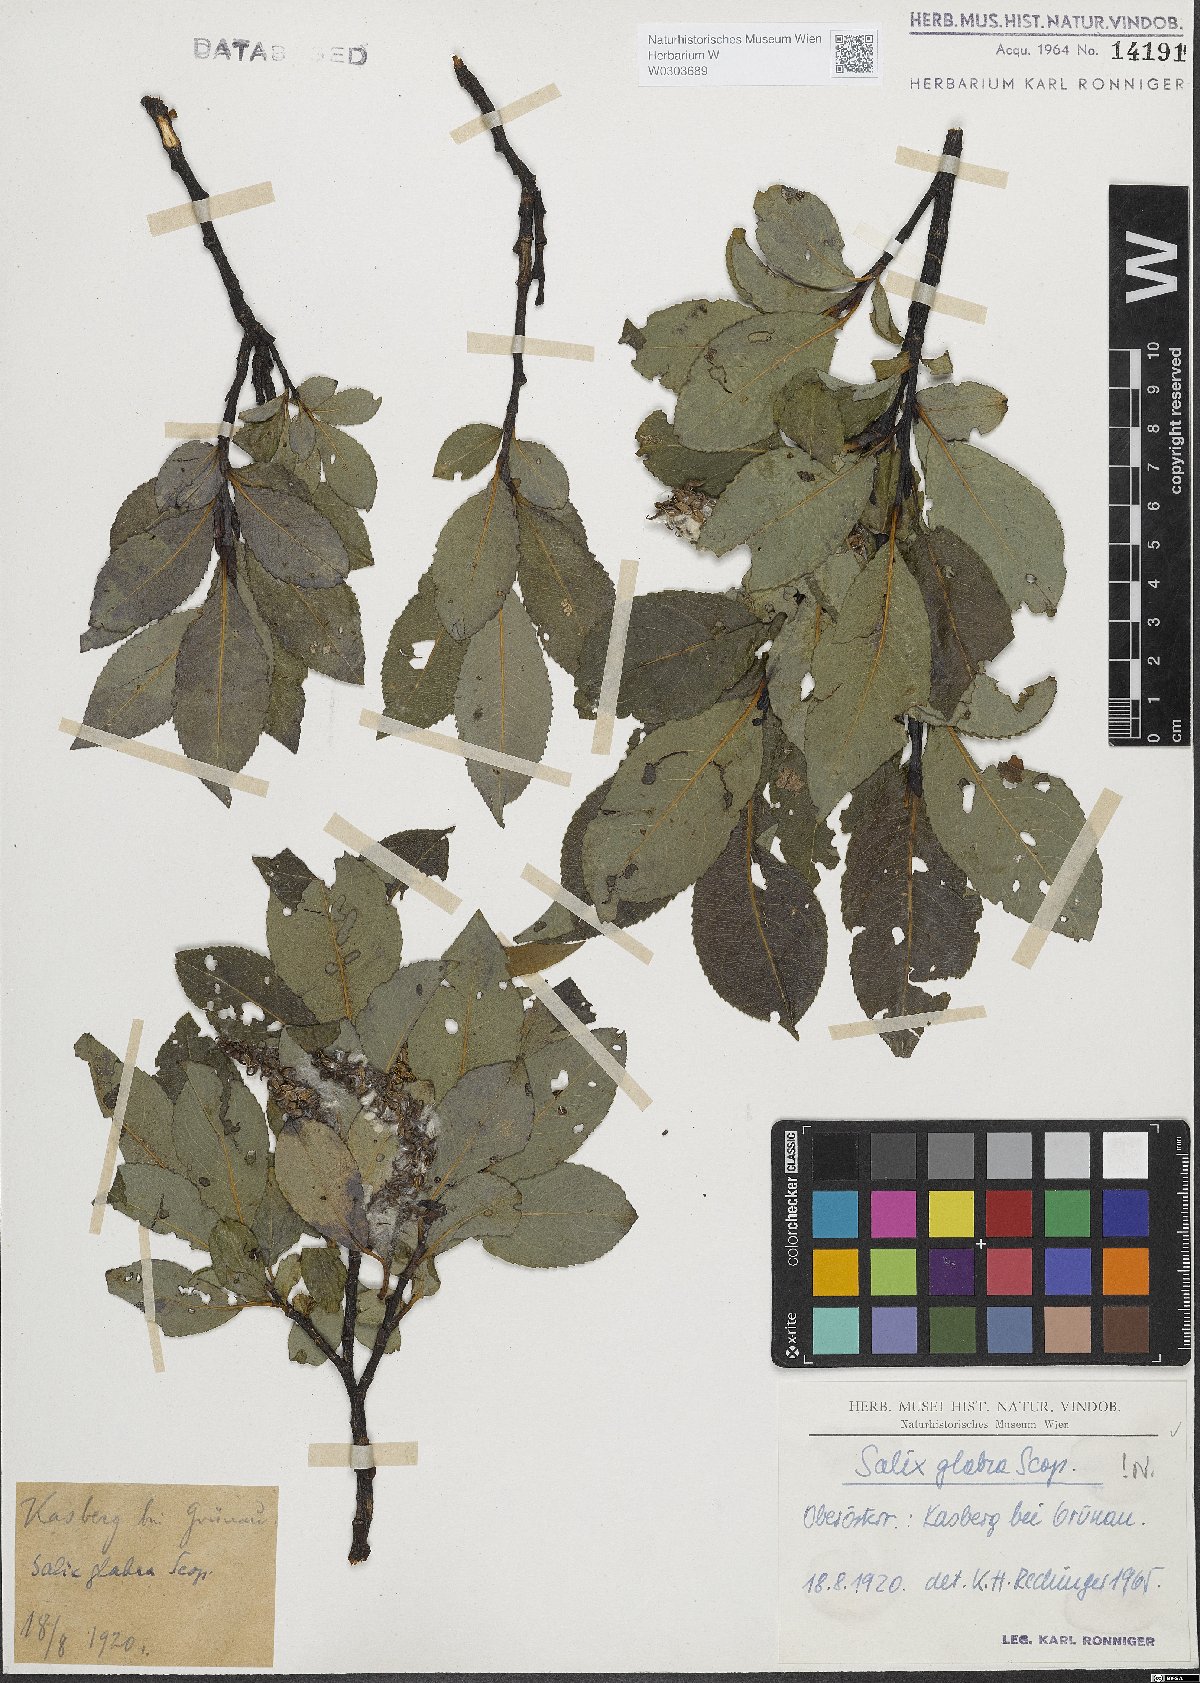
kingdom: Plantae
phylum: Tracheophyta
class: Magnoliopsida
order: Malpighiales
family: Salicaceae
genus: Salix
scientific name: Salix glabra
